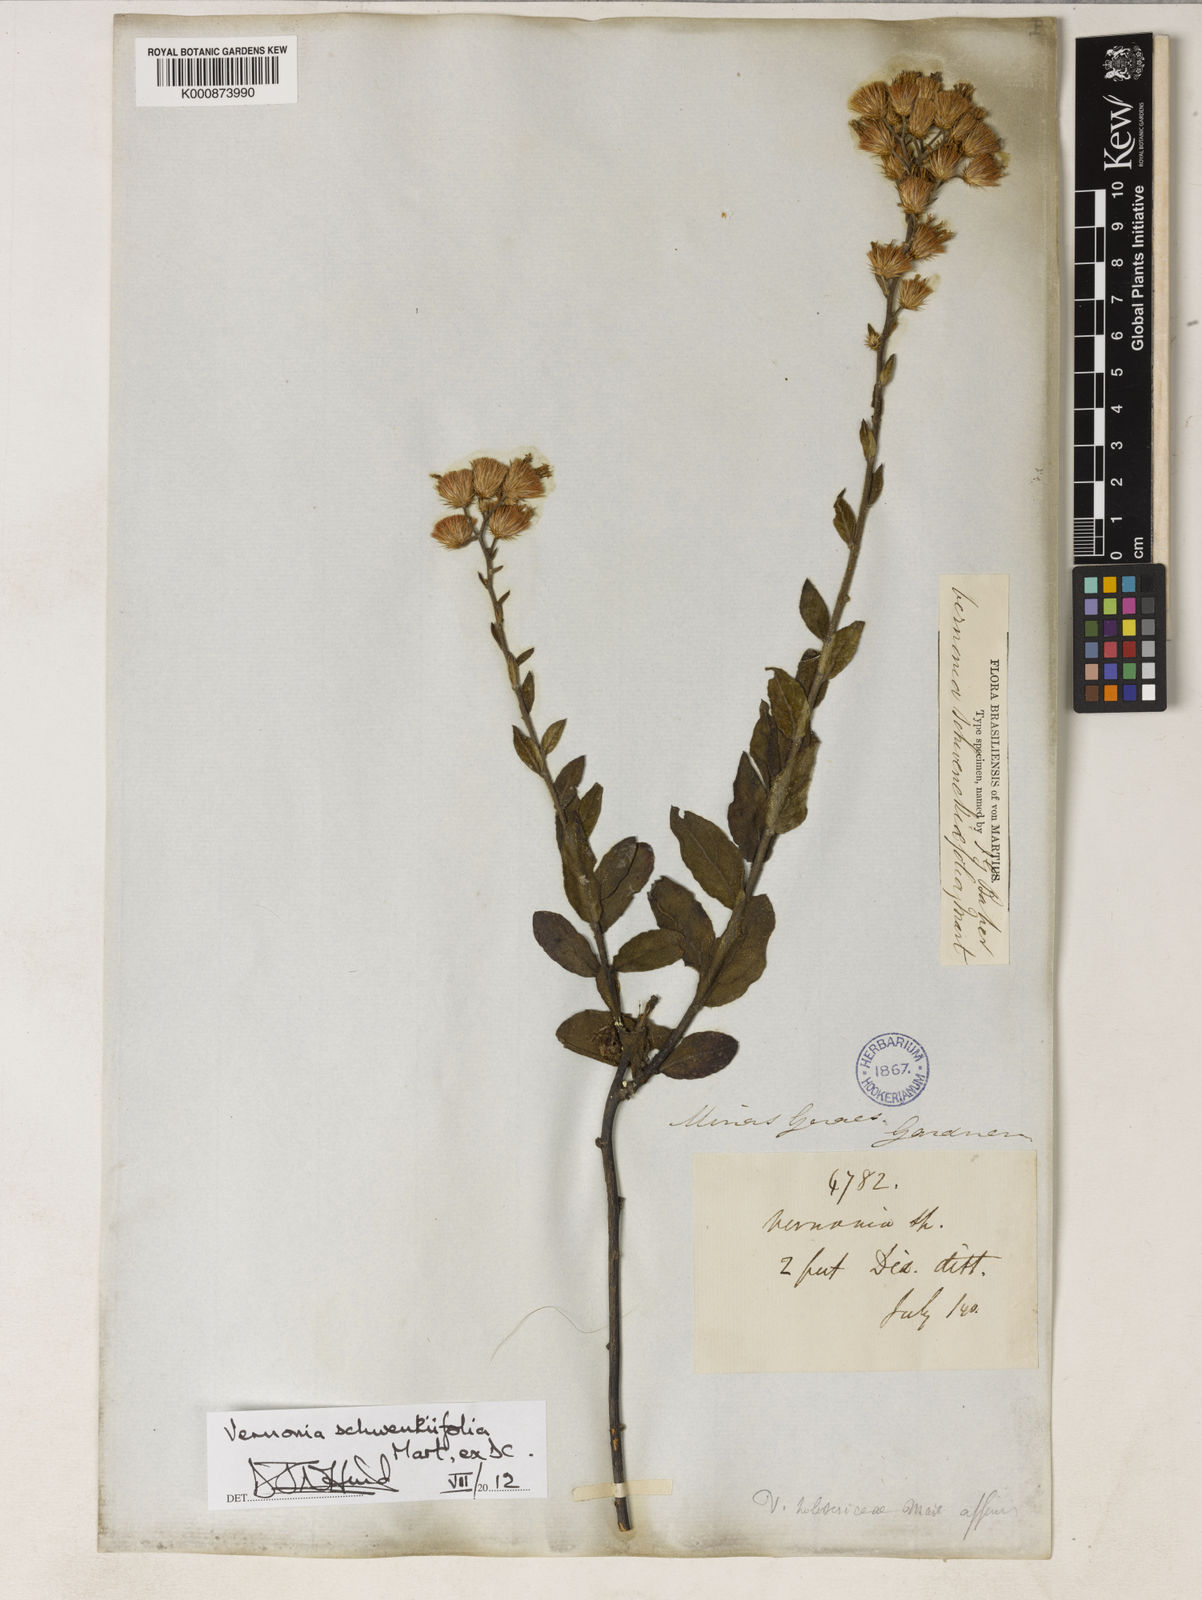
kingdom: Plantae
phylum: Tracheophyta
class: Magnoliopsida
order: Asterales
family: Asteraceae
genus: Vernonia
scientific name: Vernonia
